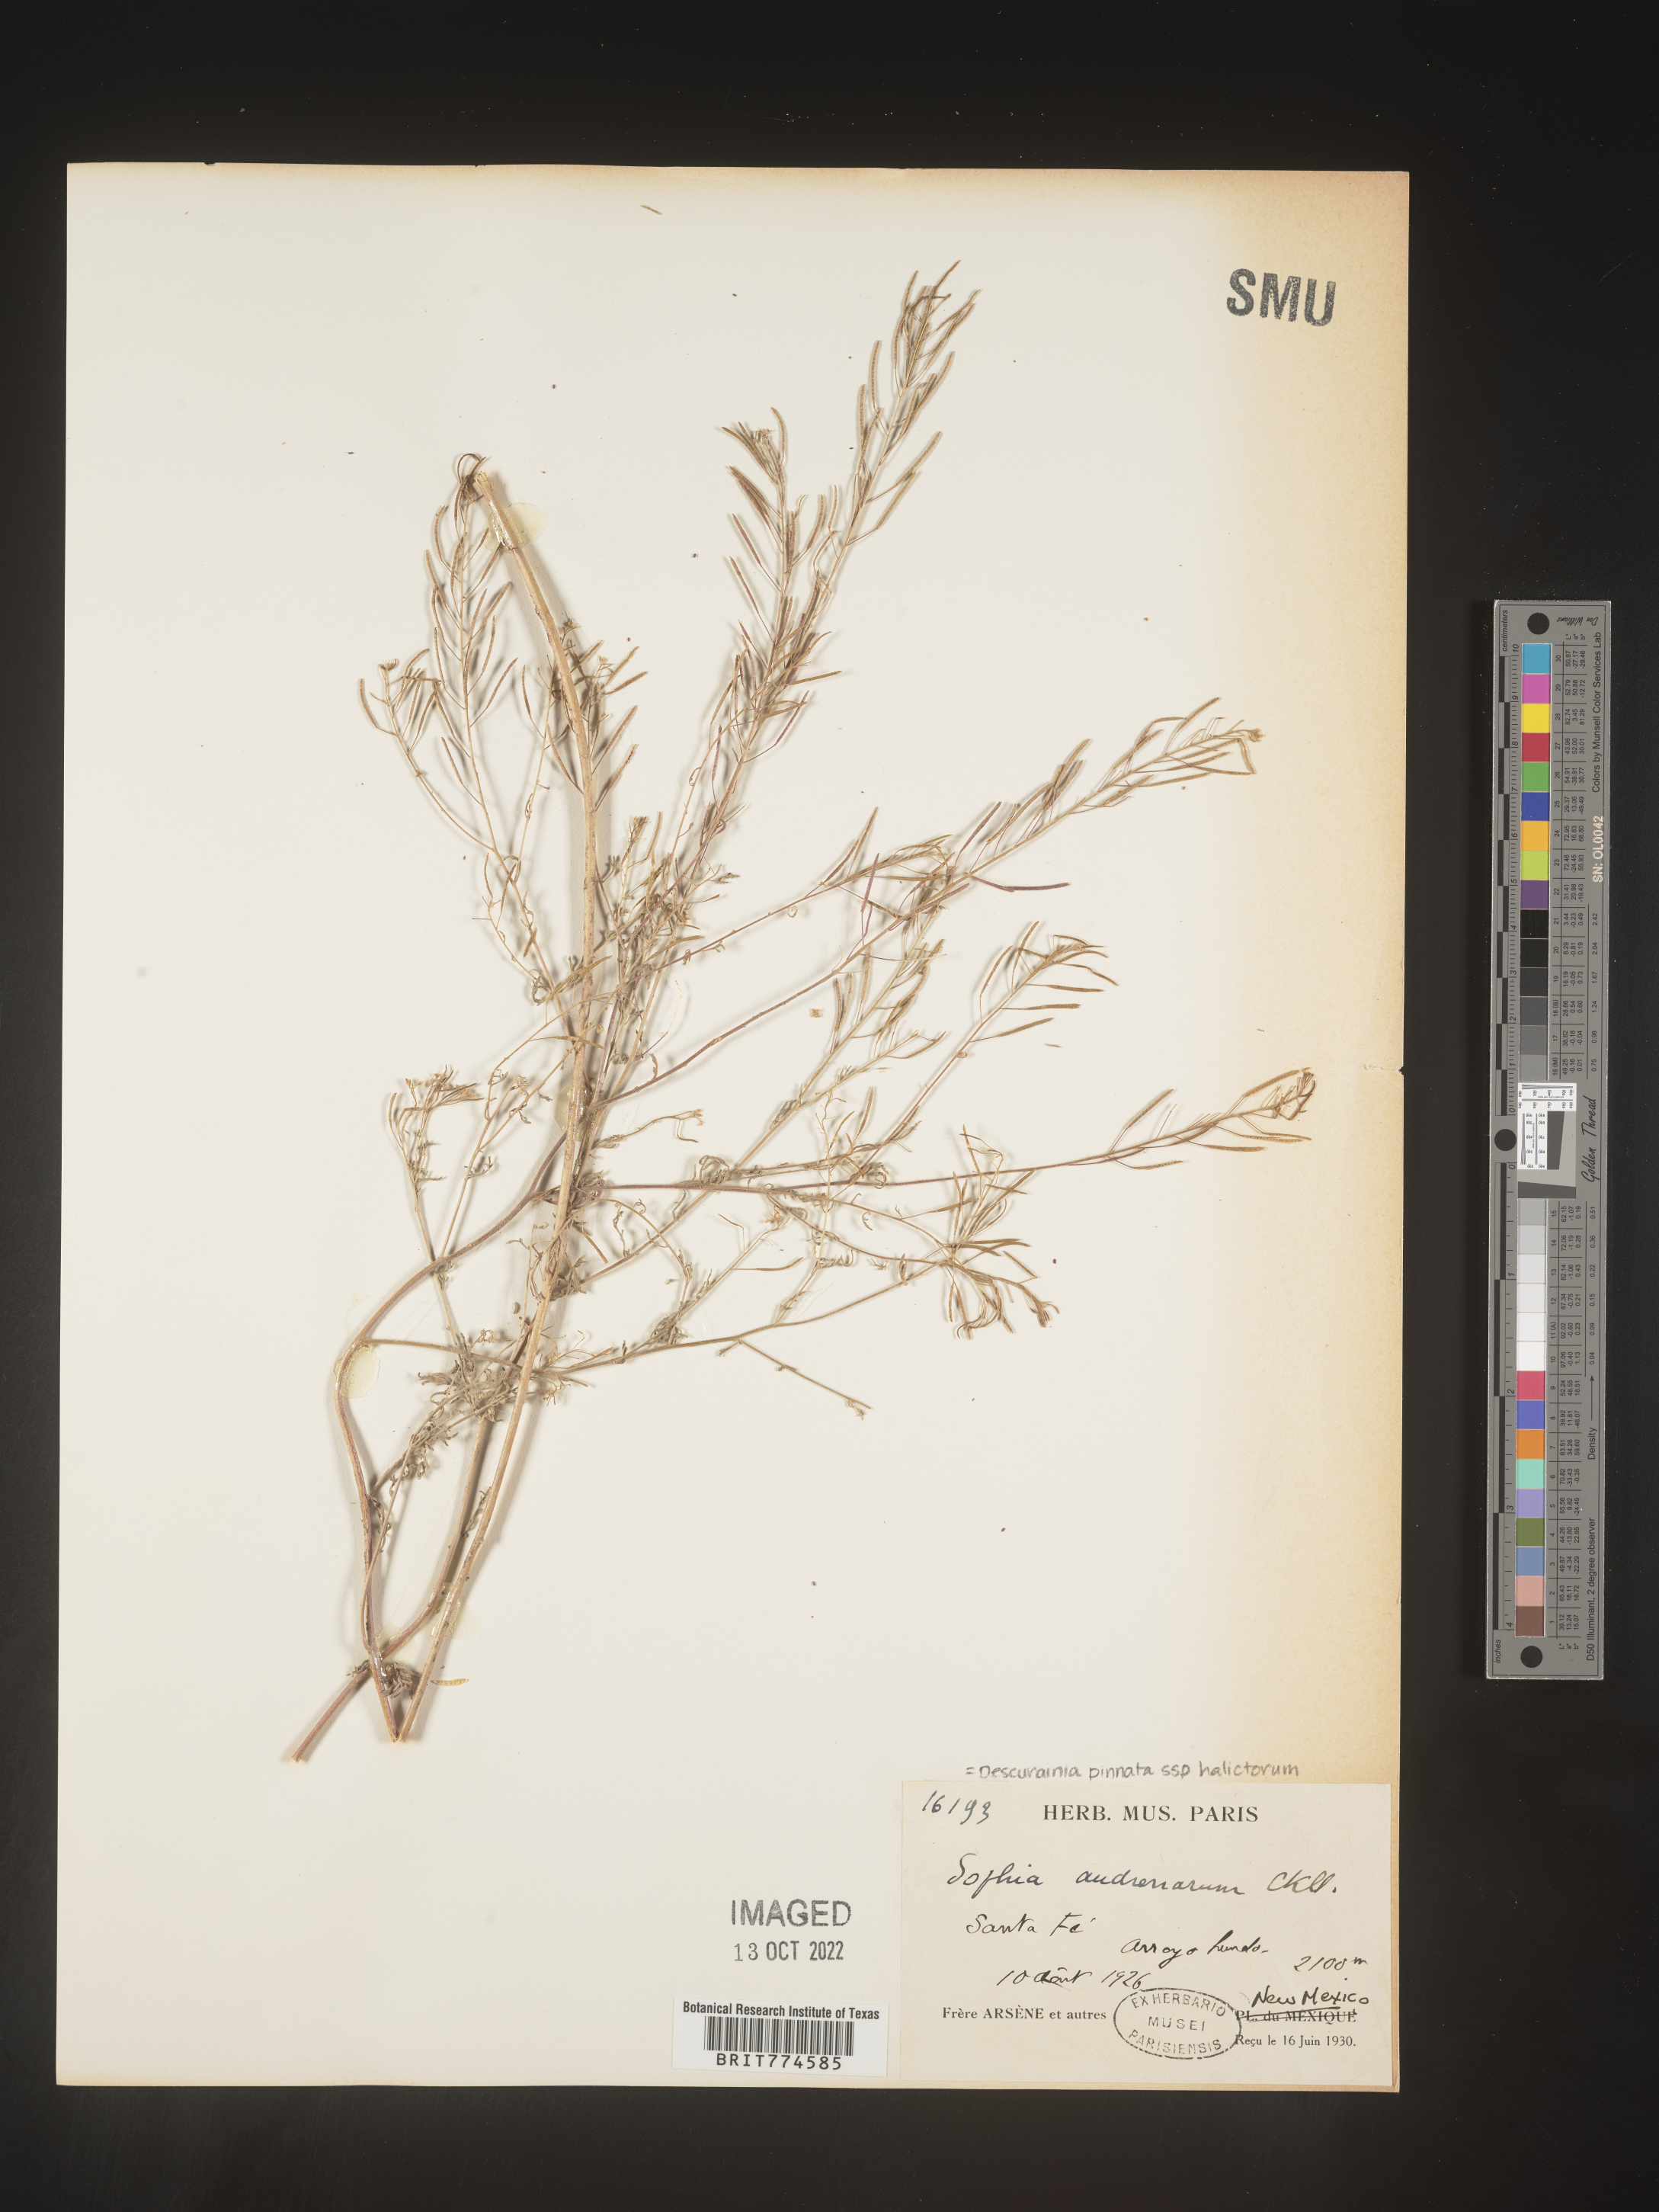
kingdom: Plantae
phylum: Tracheophyta
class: Magnoliopsida
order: Brassicales
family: Brassicaceae
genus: Descurainia
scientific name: Descurainia pinnata
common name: Western tansy mustard
